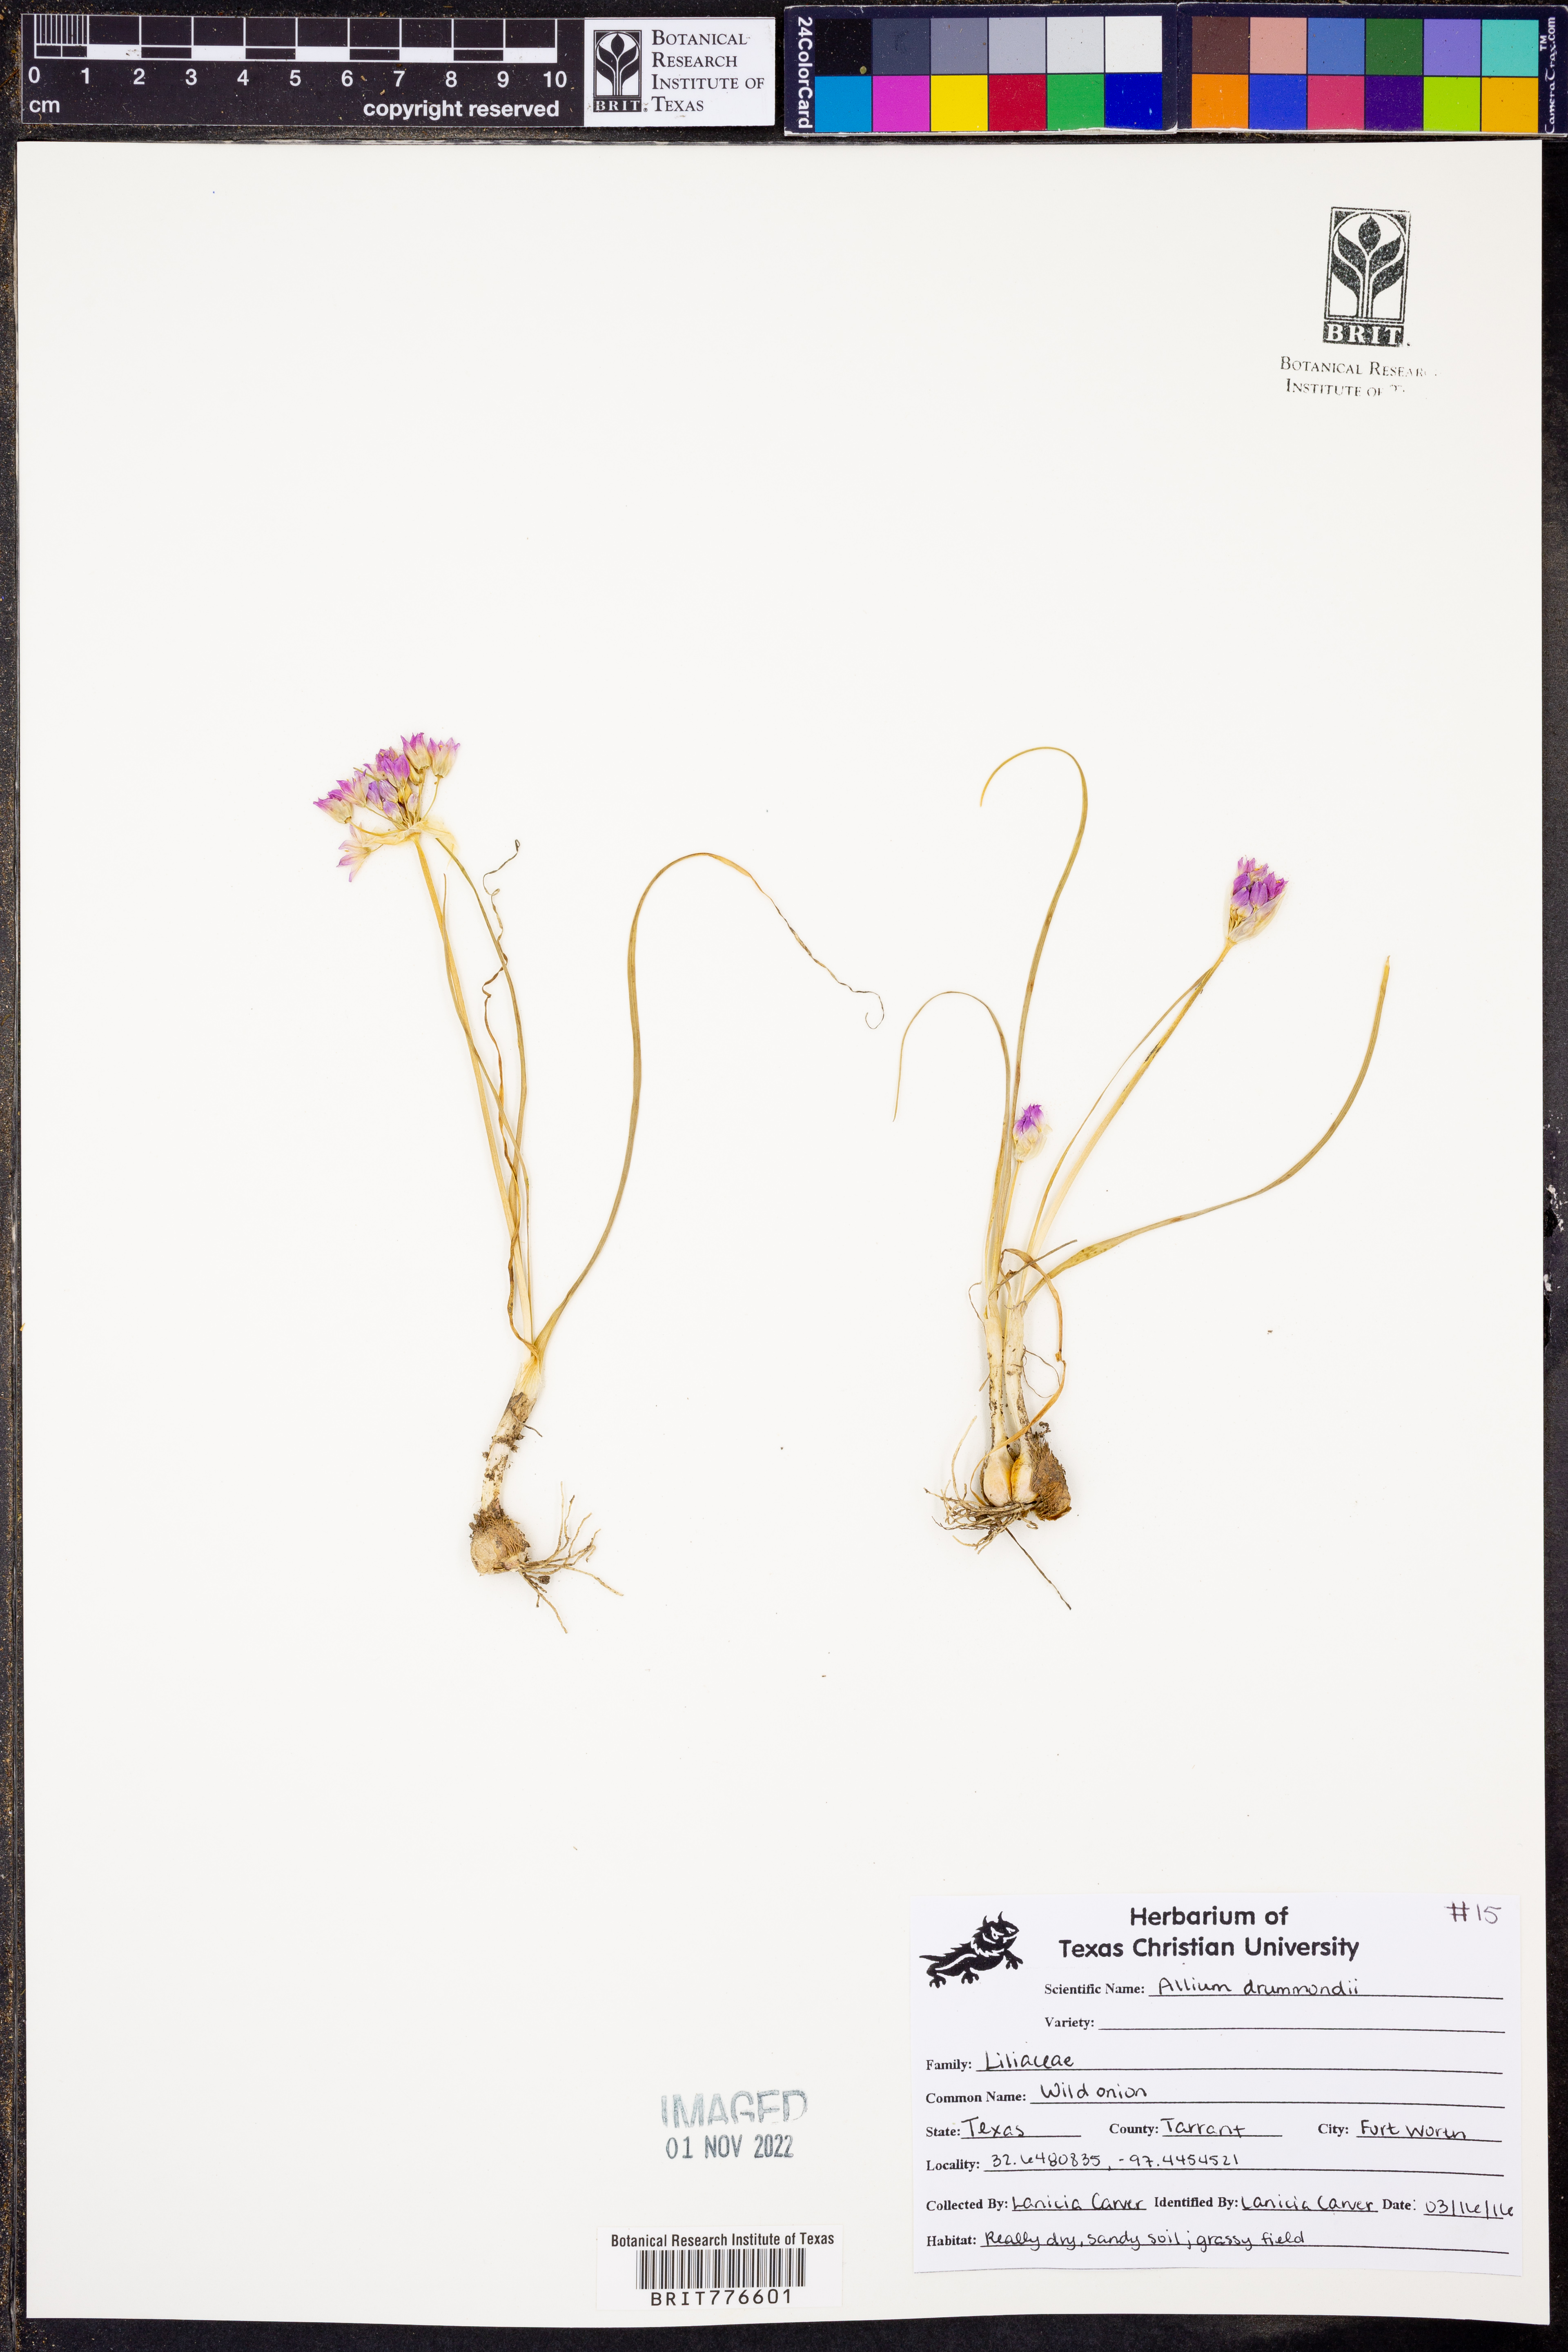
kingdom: Plantae
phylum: Tracheophyta
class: Liliopsida
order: Asparagales
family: Amaryllidaceae
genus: Allium
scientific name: Allium drummondii
